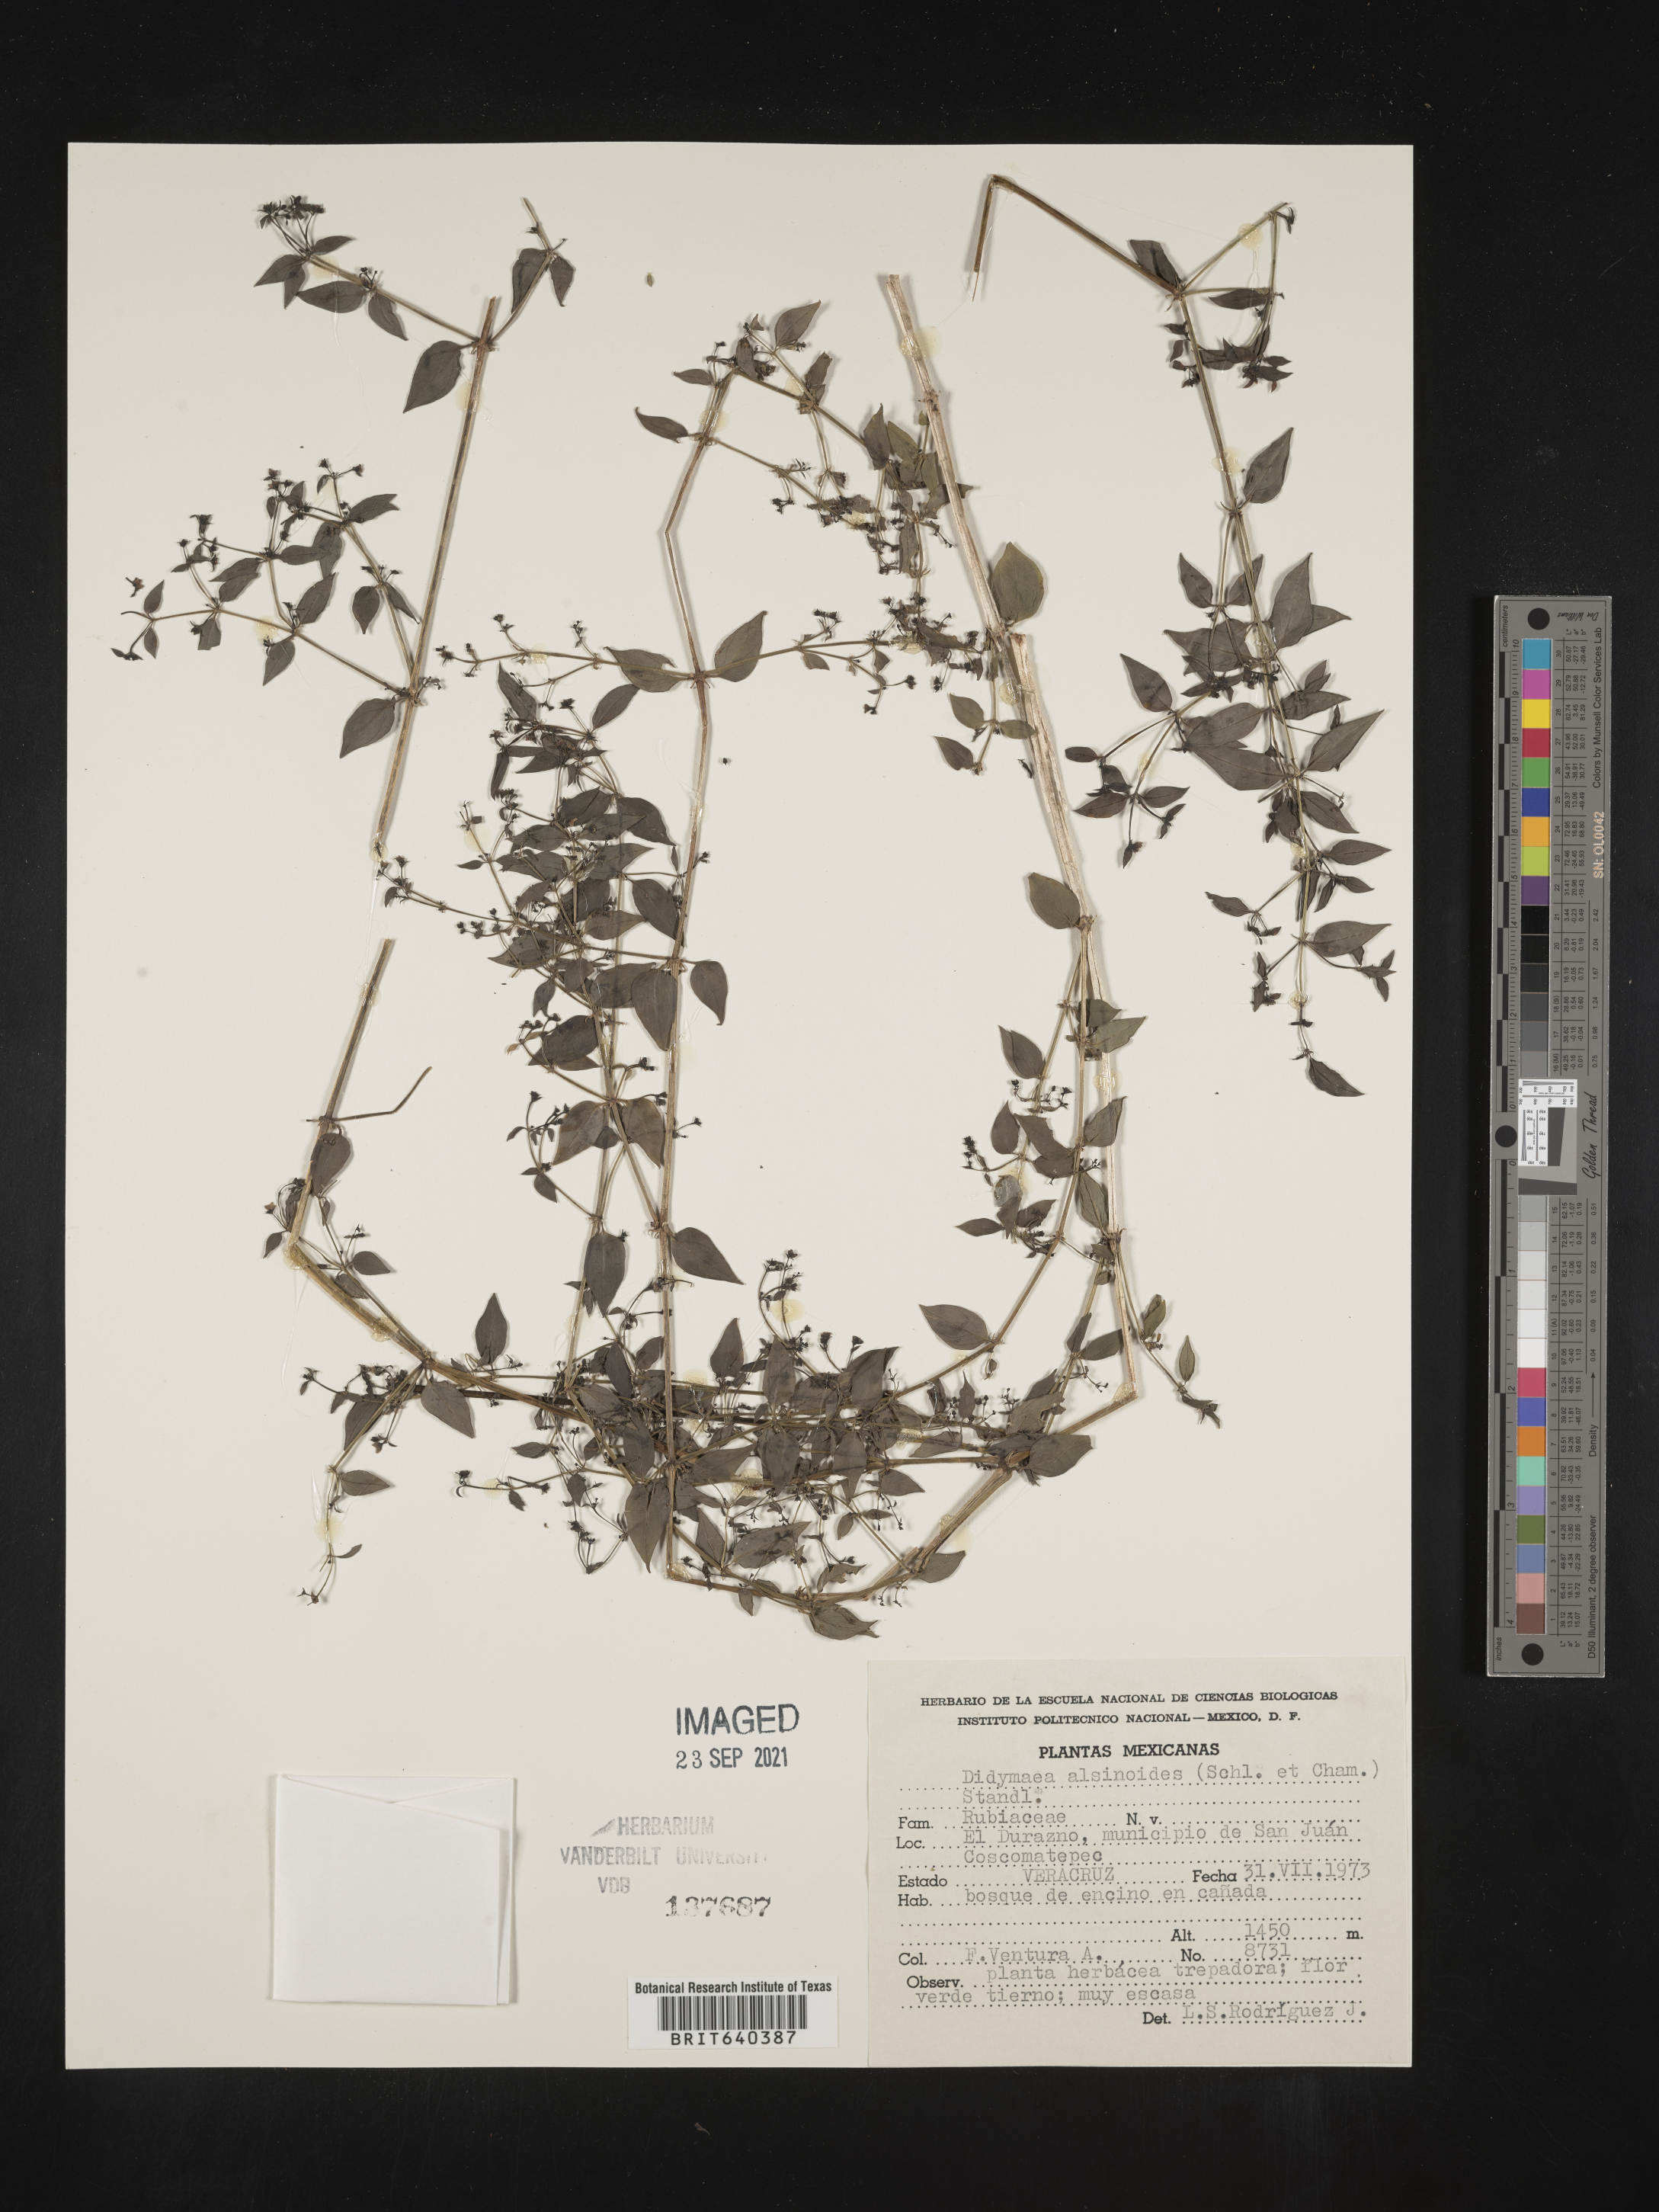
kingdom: Plantae
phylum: Tracheophyta
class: Magnoliopsida
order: Gentianales
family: Rubiaceae
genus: Didymaea
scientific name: Didymaea
